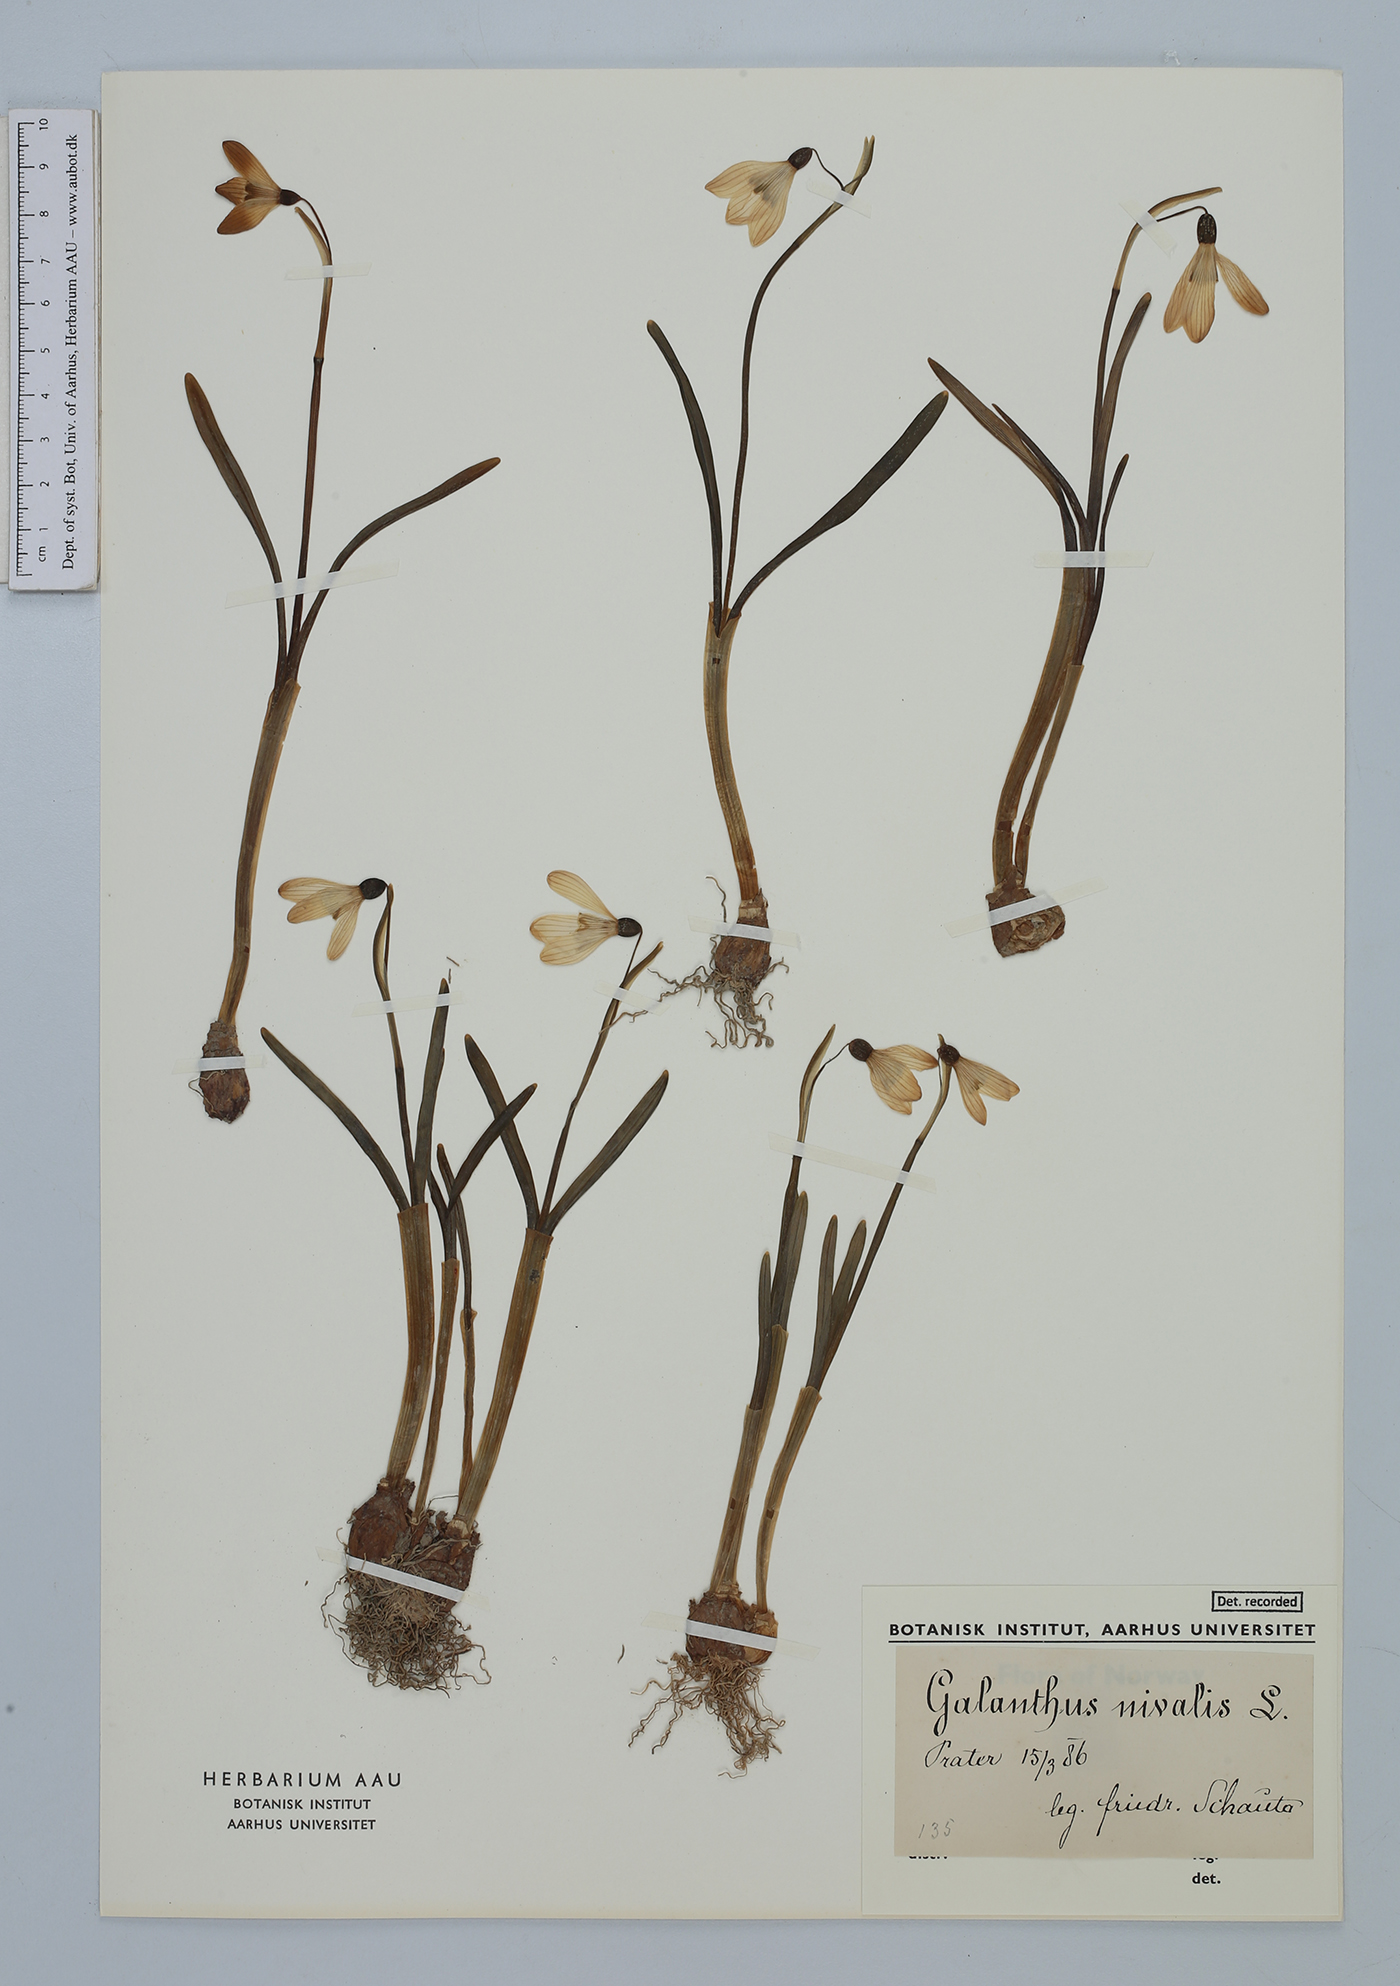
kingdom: Plantae
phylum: Tracheophyta
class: Liliopsida
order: Asparagales
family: Amaryllidaceae
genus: Galanthus
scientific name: Galanthus nivalis
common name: Snowdrop
